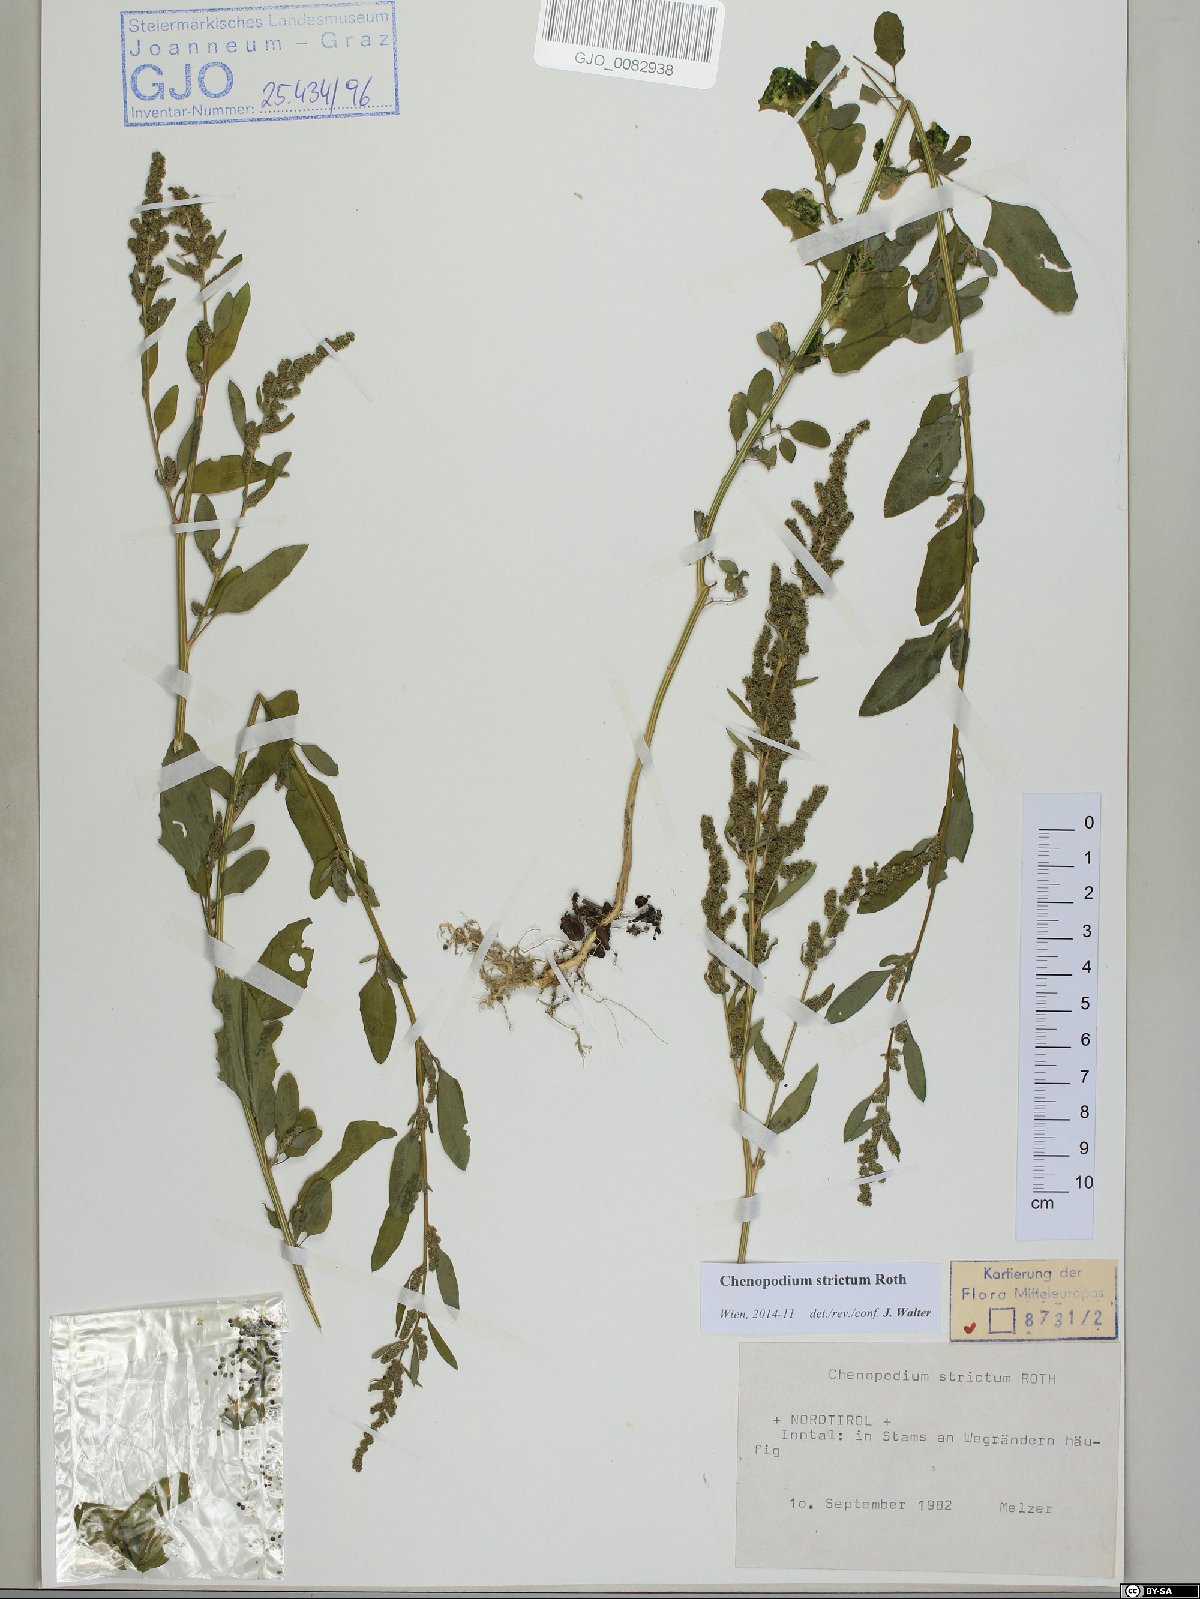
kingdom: Plantae
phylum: Tracheophyta
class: Magnoliopsida
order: Caryophyllales
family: Amaranthaceae
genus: Chenopodium
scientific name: Chenopodium album
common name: Fat-hen
